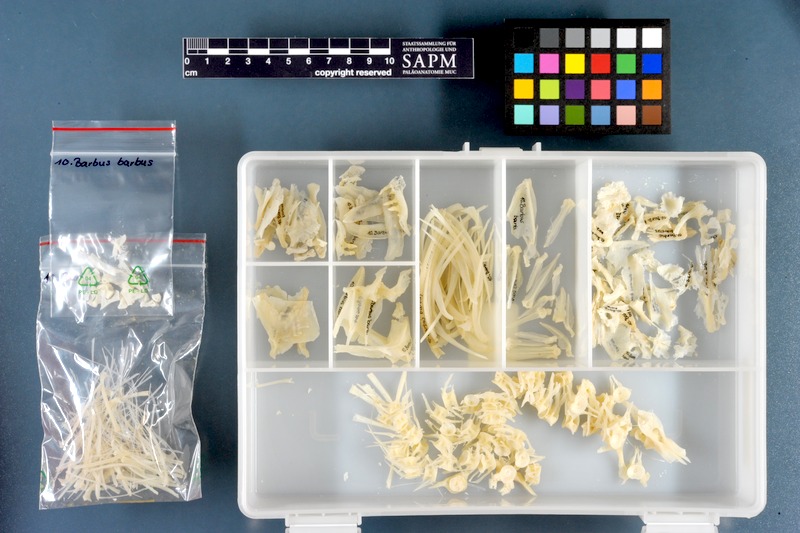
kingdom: Animalia
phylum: Chordata
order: Cypriniformes
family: Cyprinidae
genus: Barbus
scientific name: Barbus barbus
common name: Barbel
